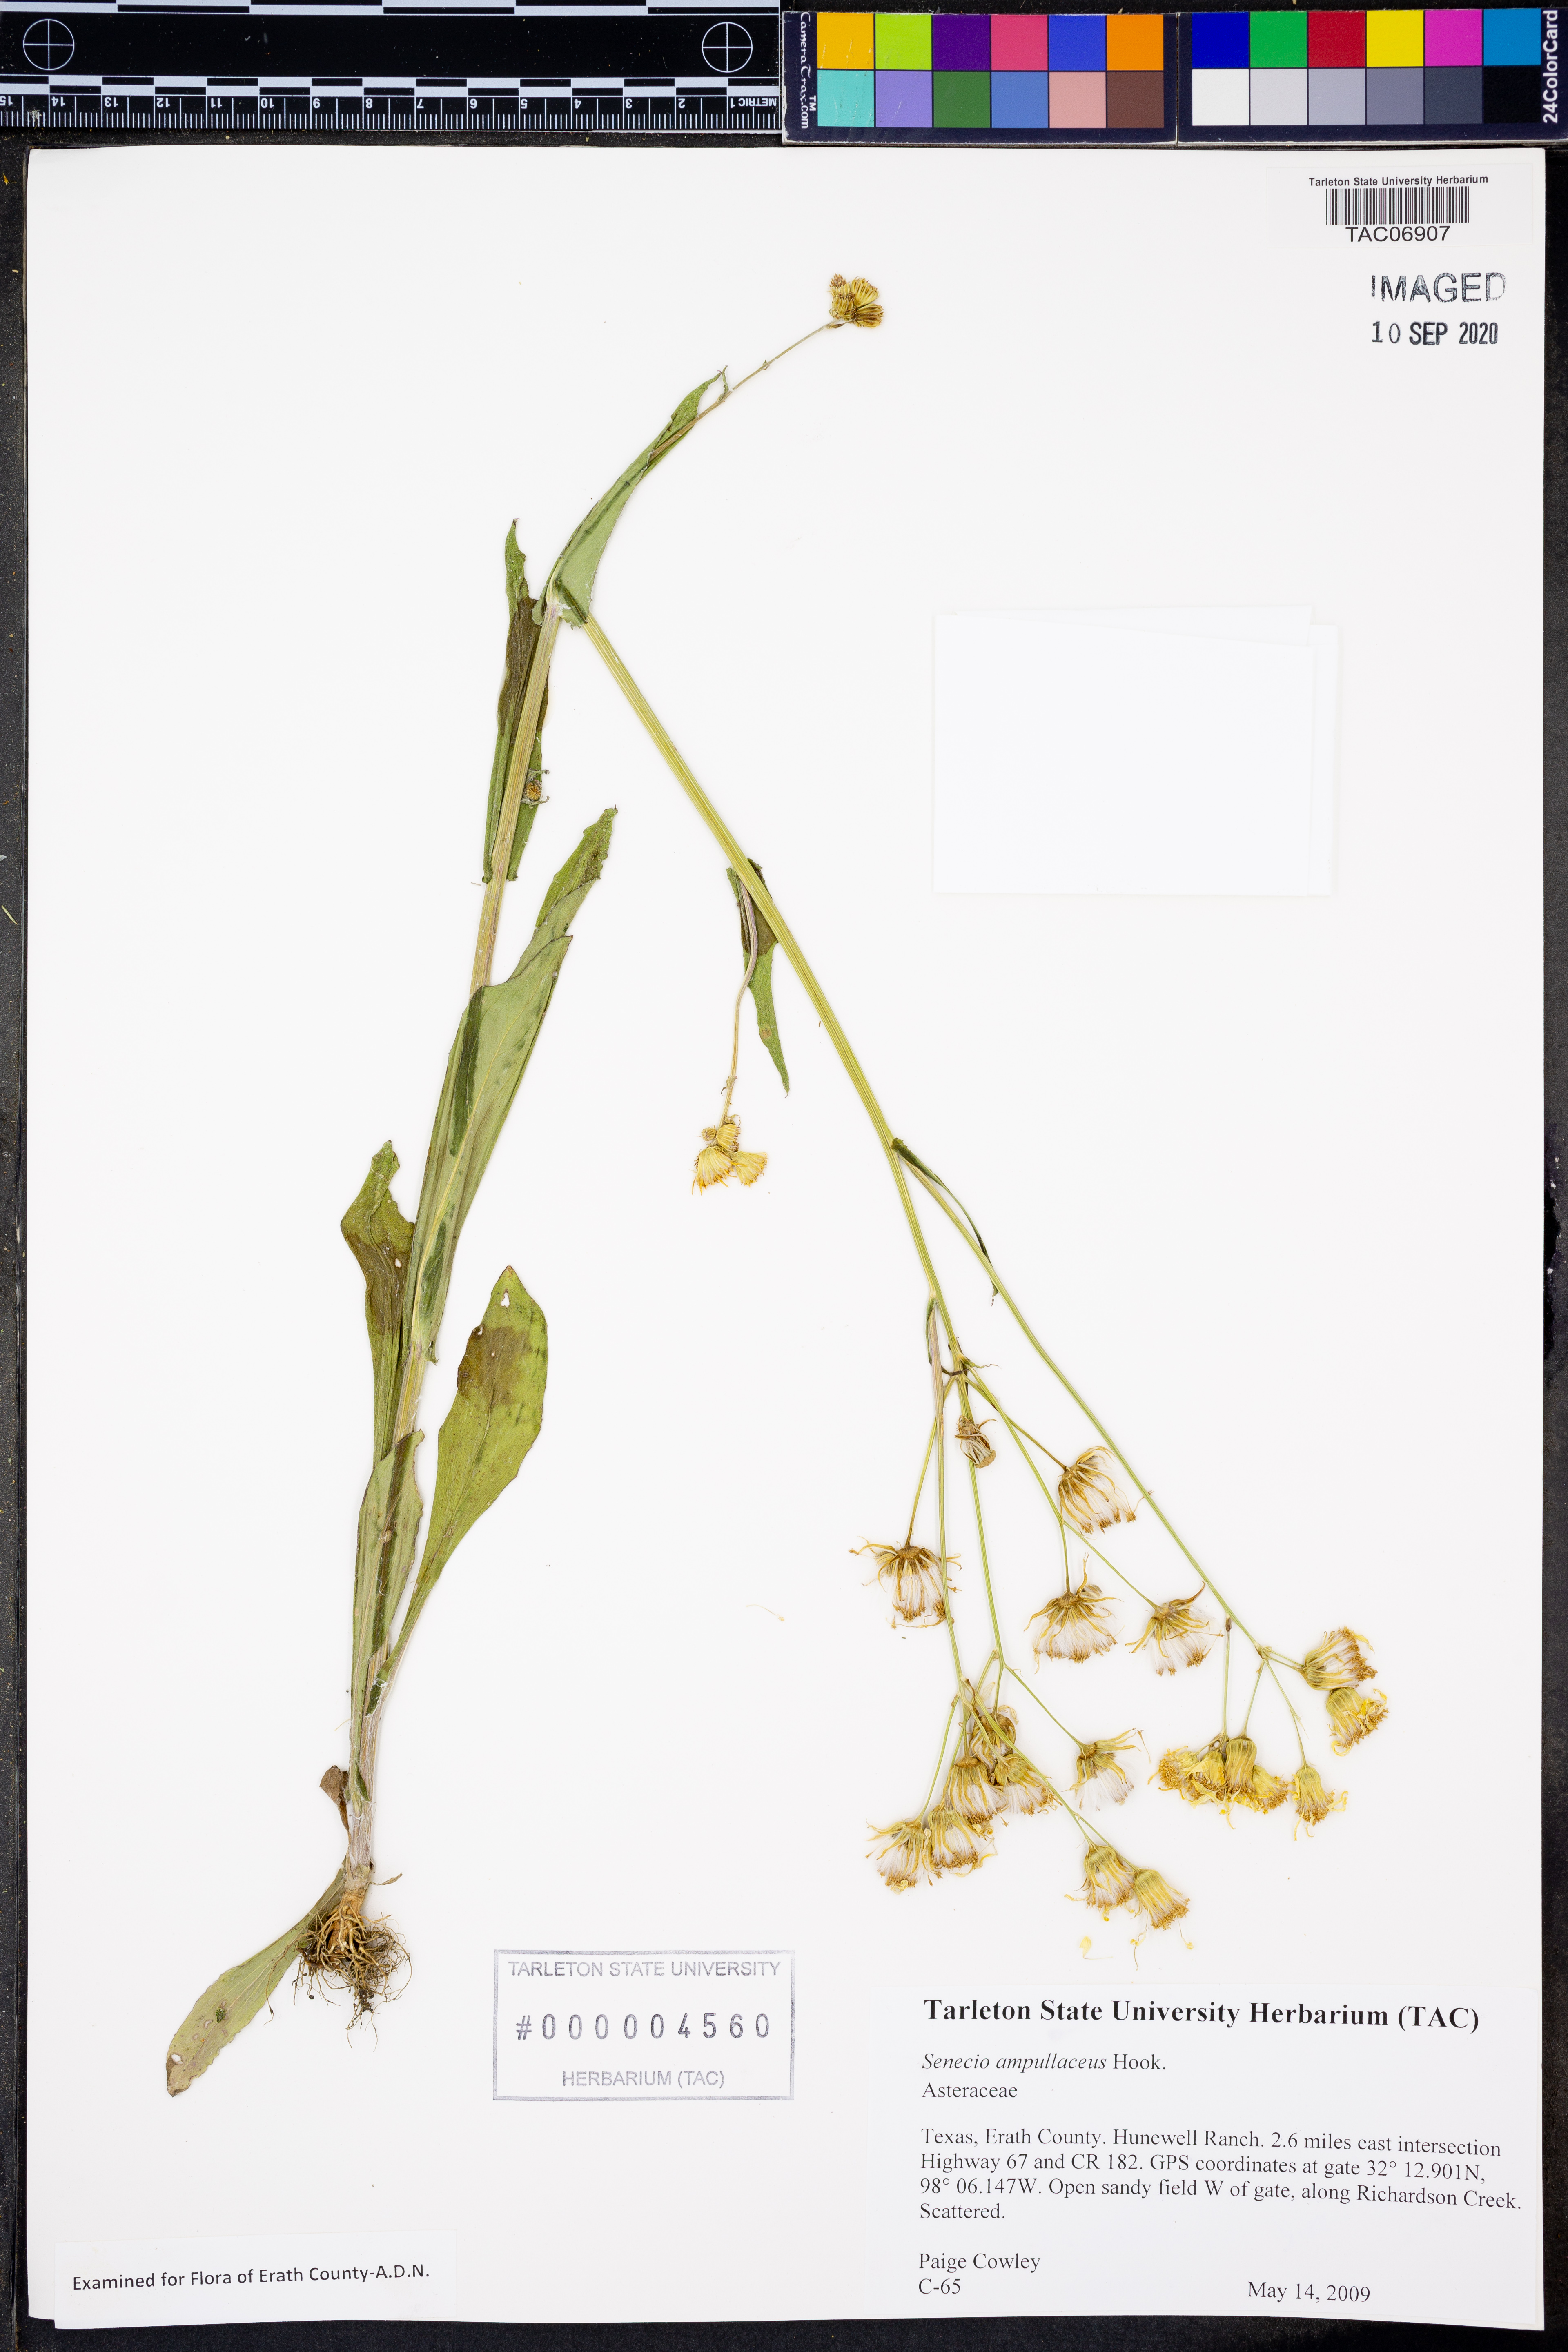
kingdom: Plantae
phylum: Tracheophyta
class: Magnoliopsida
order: Asterales
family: Asteraceae
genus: Senecio
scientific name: Senecio ampullaceus
